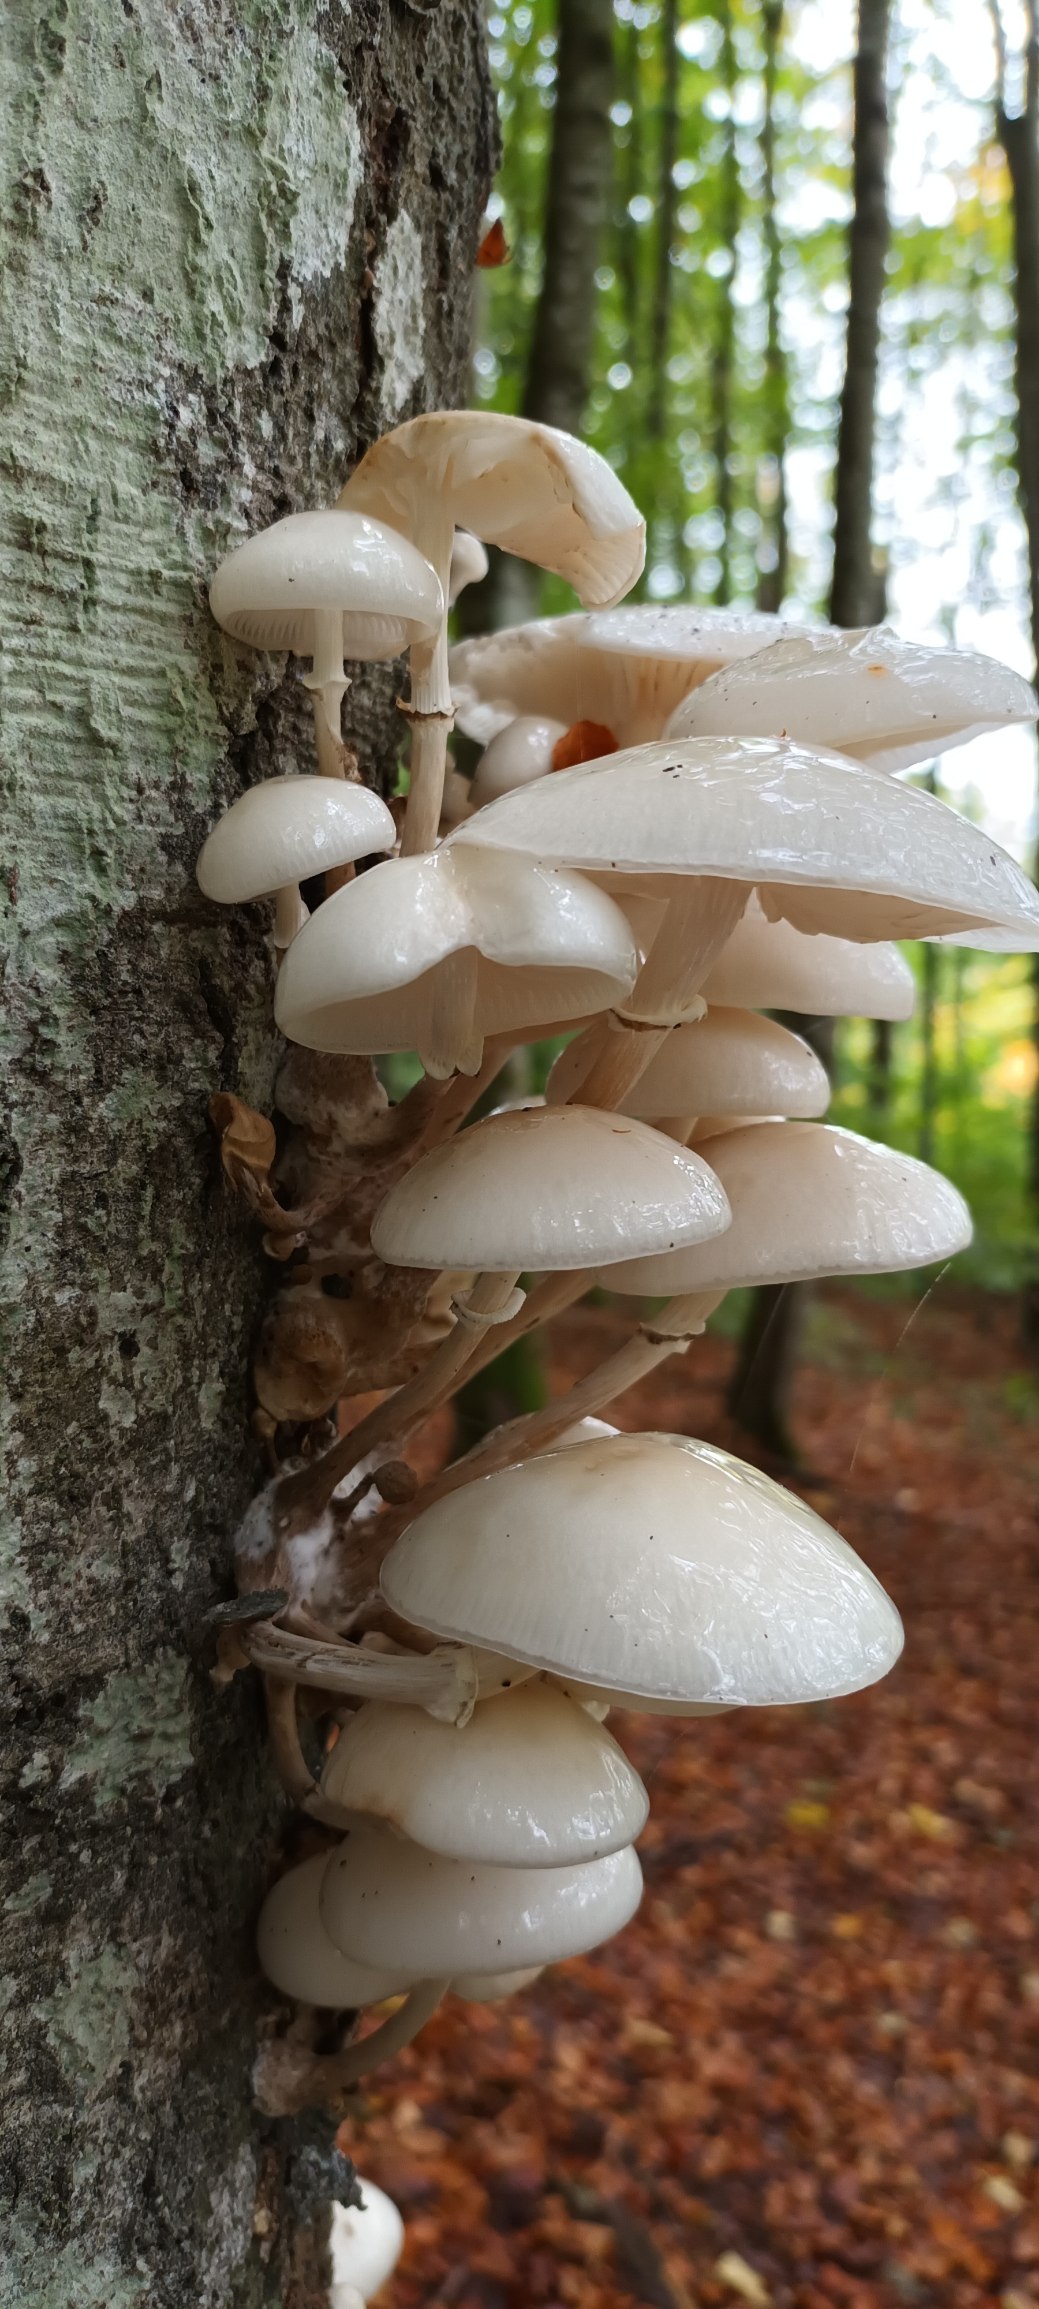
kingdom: Fungi
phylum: Basidiomycota
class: Agaricomycetes
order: Agaricales
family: Physalacriaceae
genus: Mucidula
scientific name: Mucidula mucida
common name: Porcelænshat
